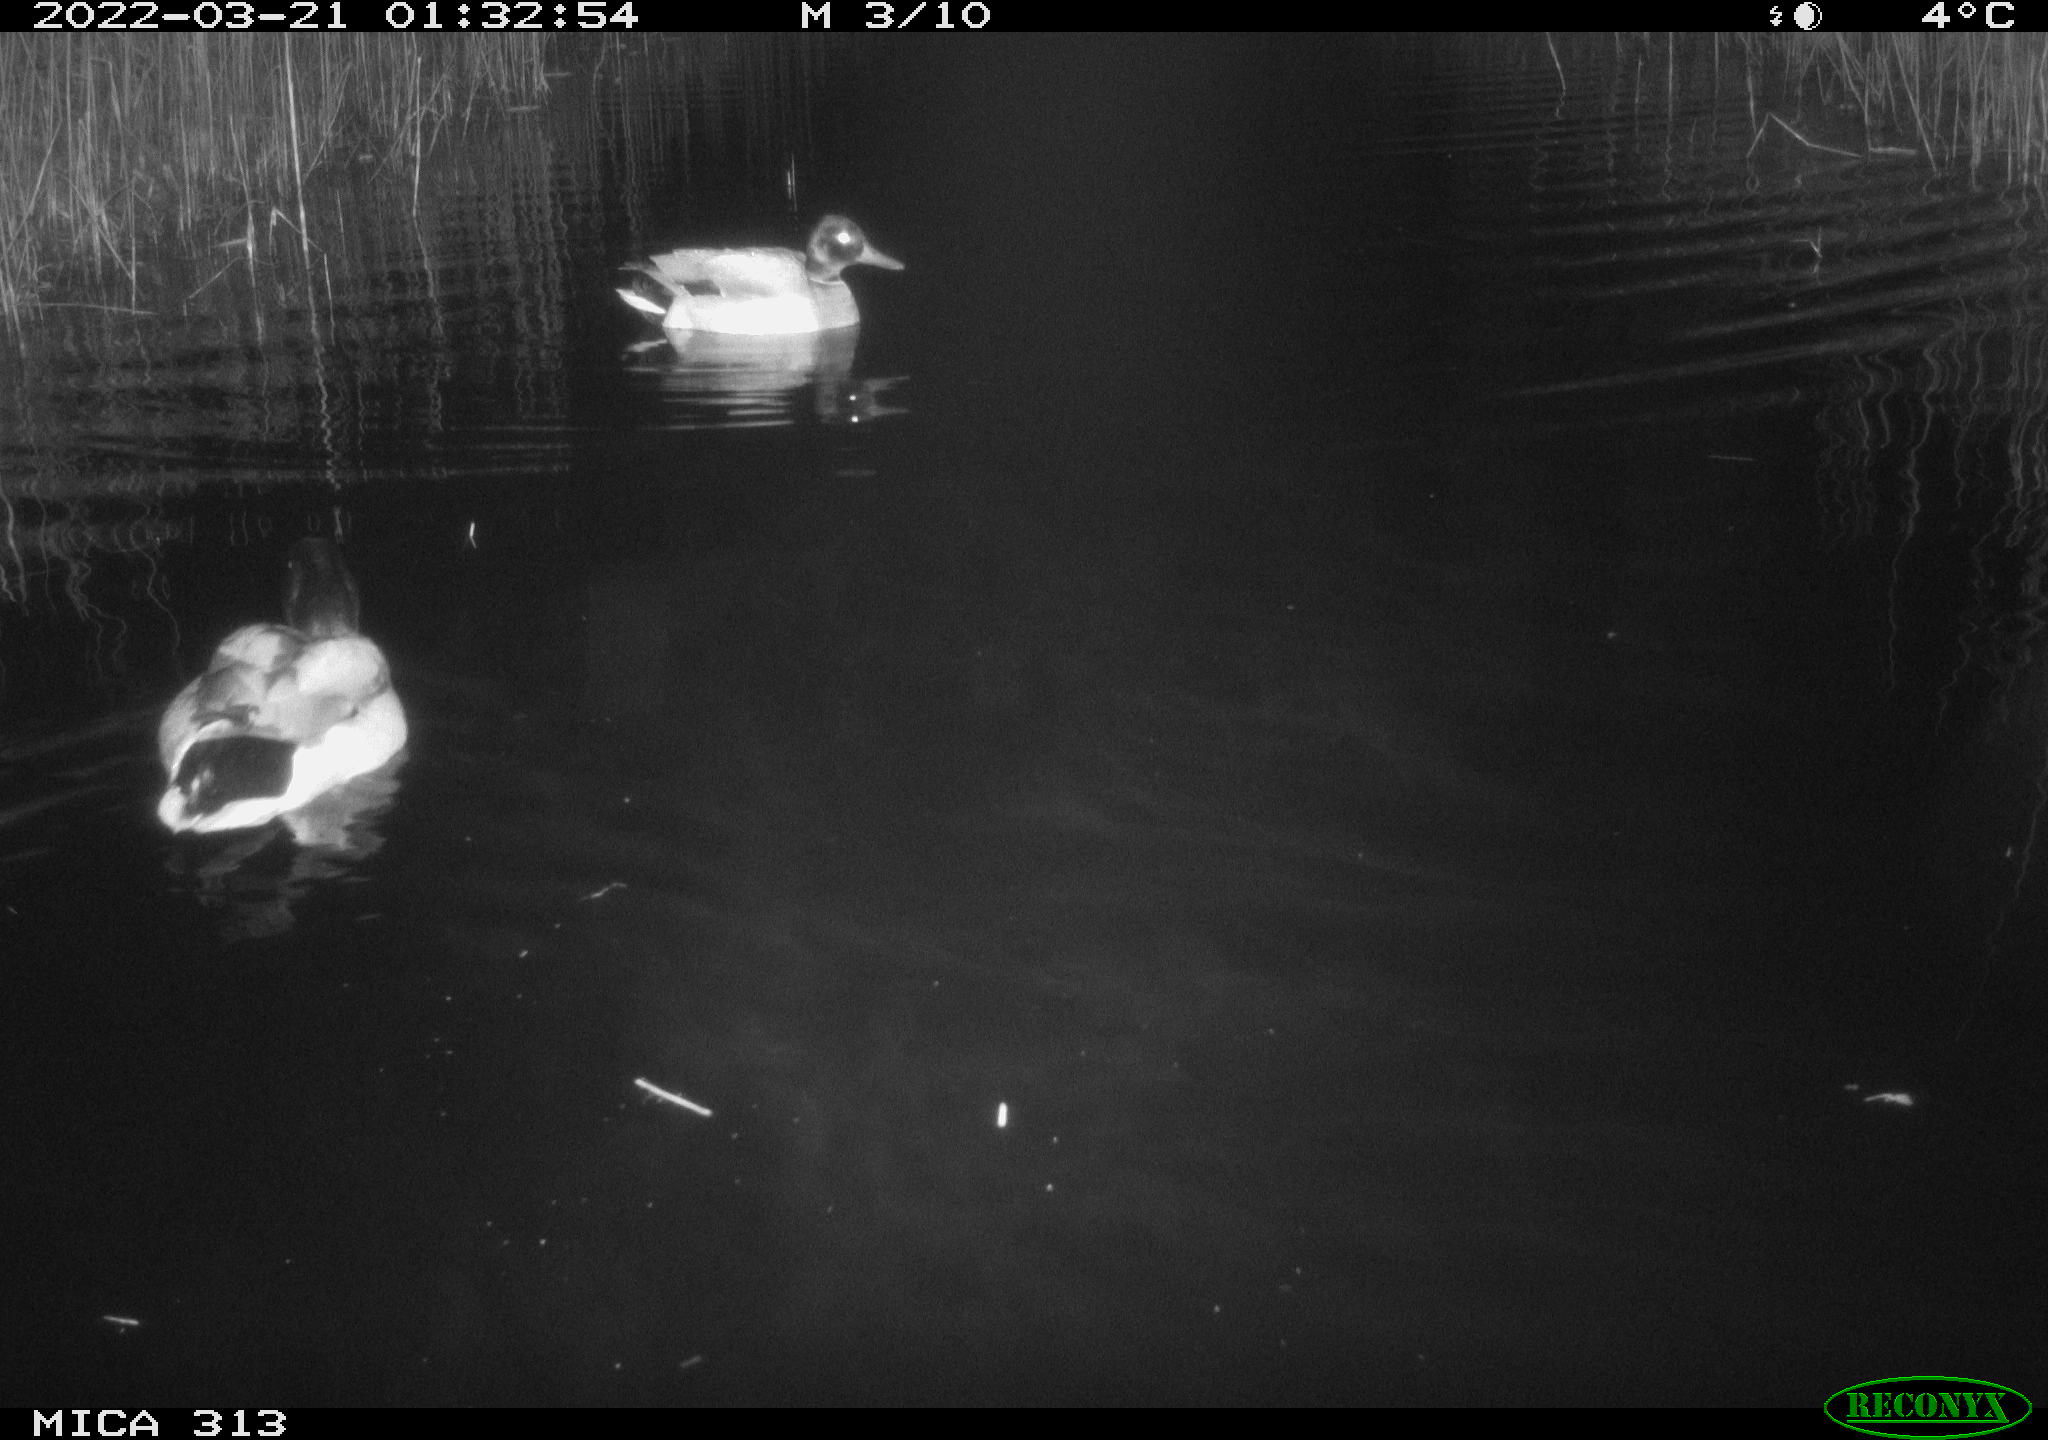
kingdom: Animalia
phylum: Chordata
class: Aves
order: Anseriformes
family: Anatidae
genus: Anas
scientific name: Anas platyrhynchos
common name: Mallard
